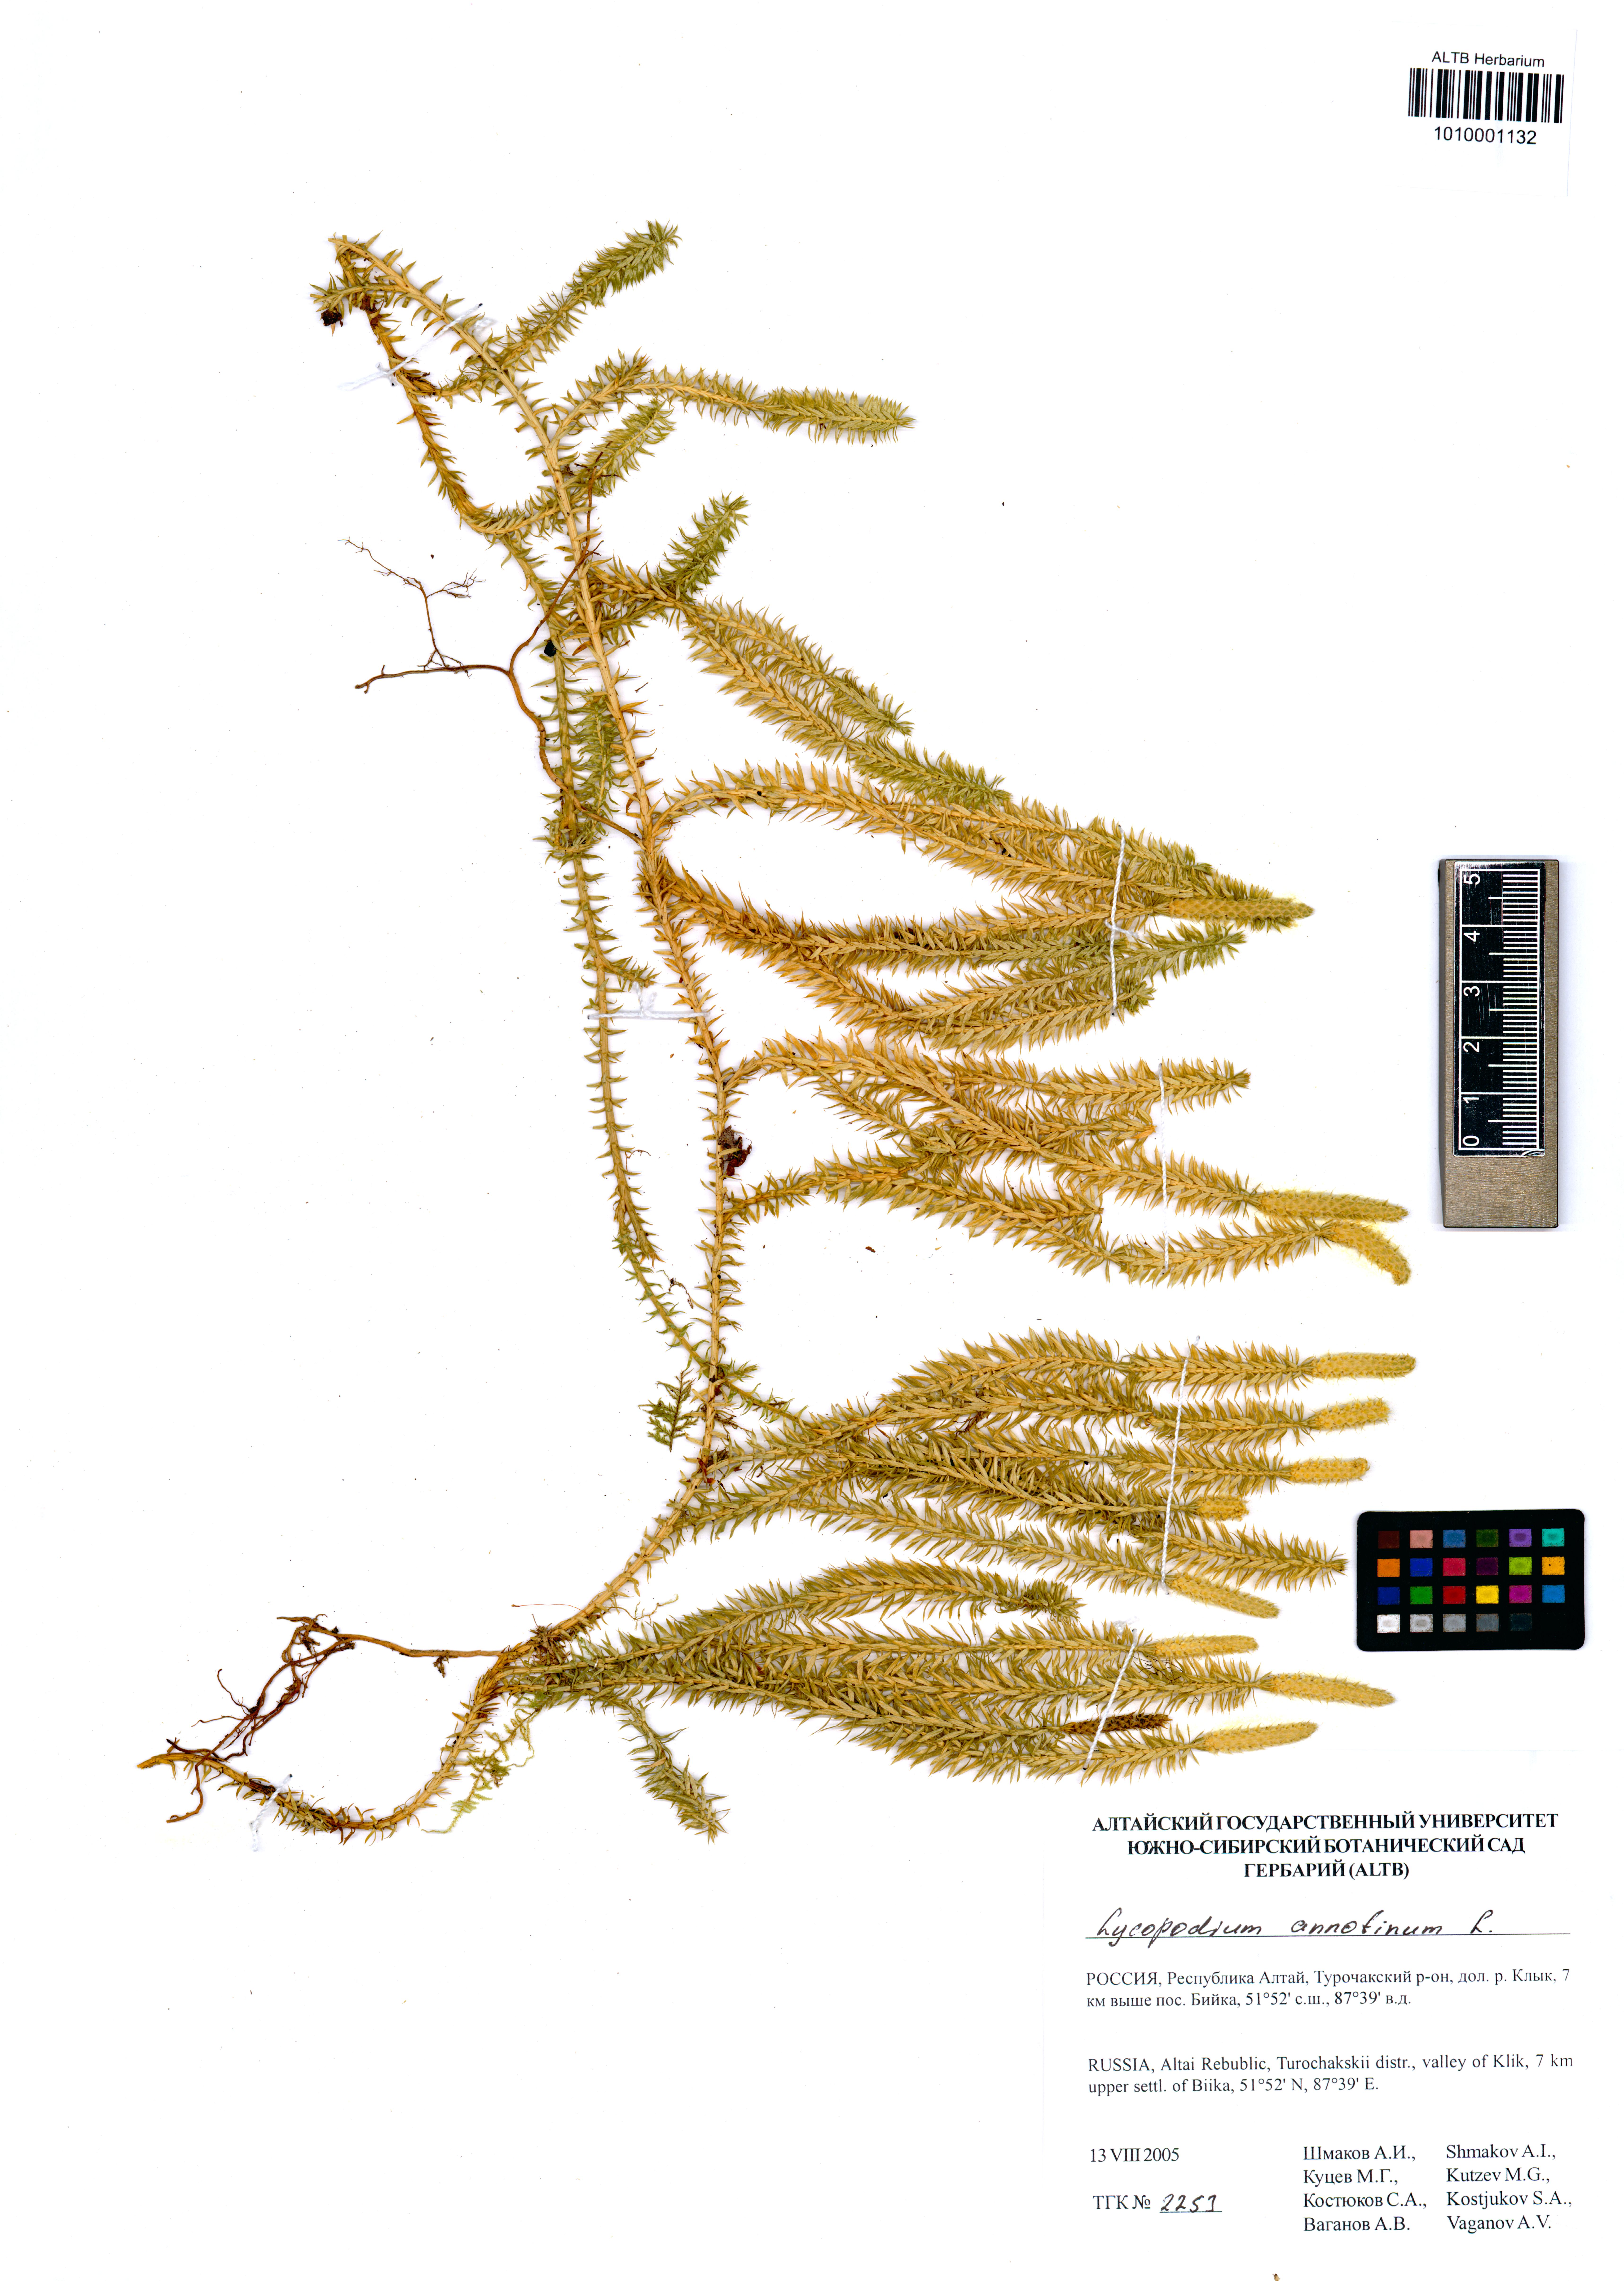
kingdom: Plantae
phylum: Tracheophyta
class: Lycopodiopsida
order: Lycopodiales
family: Lycopodiaceae
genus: Spinulum
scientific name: Spinulum annotinum
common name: Interrupted club-moss
